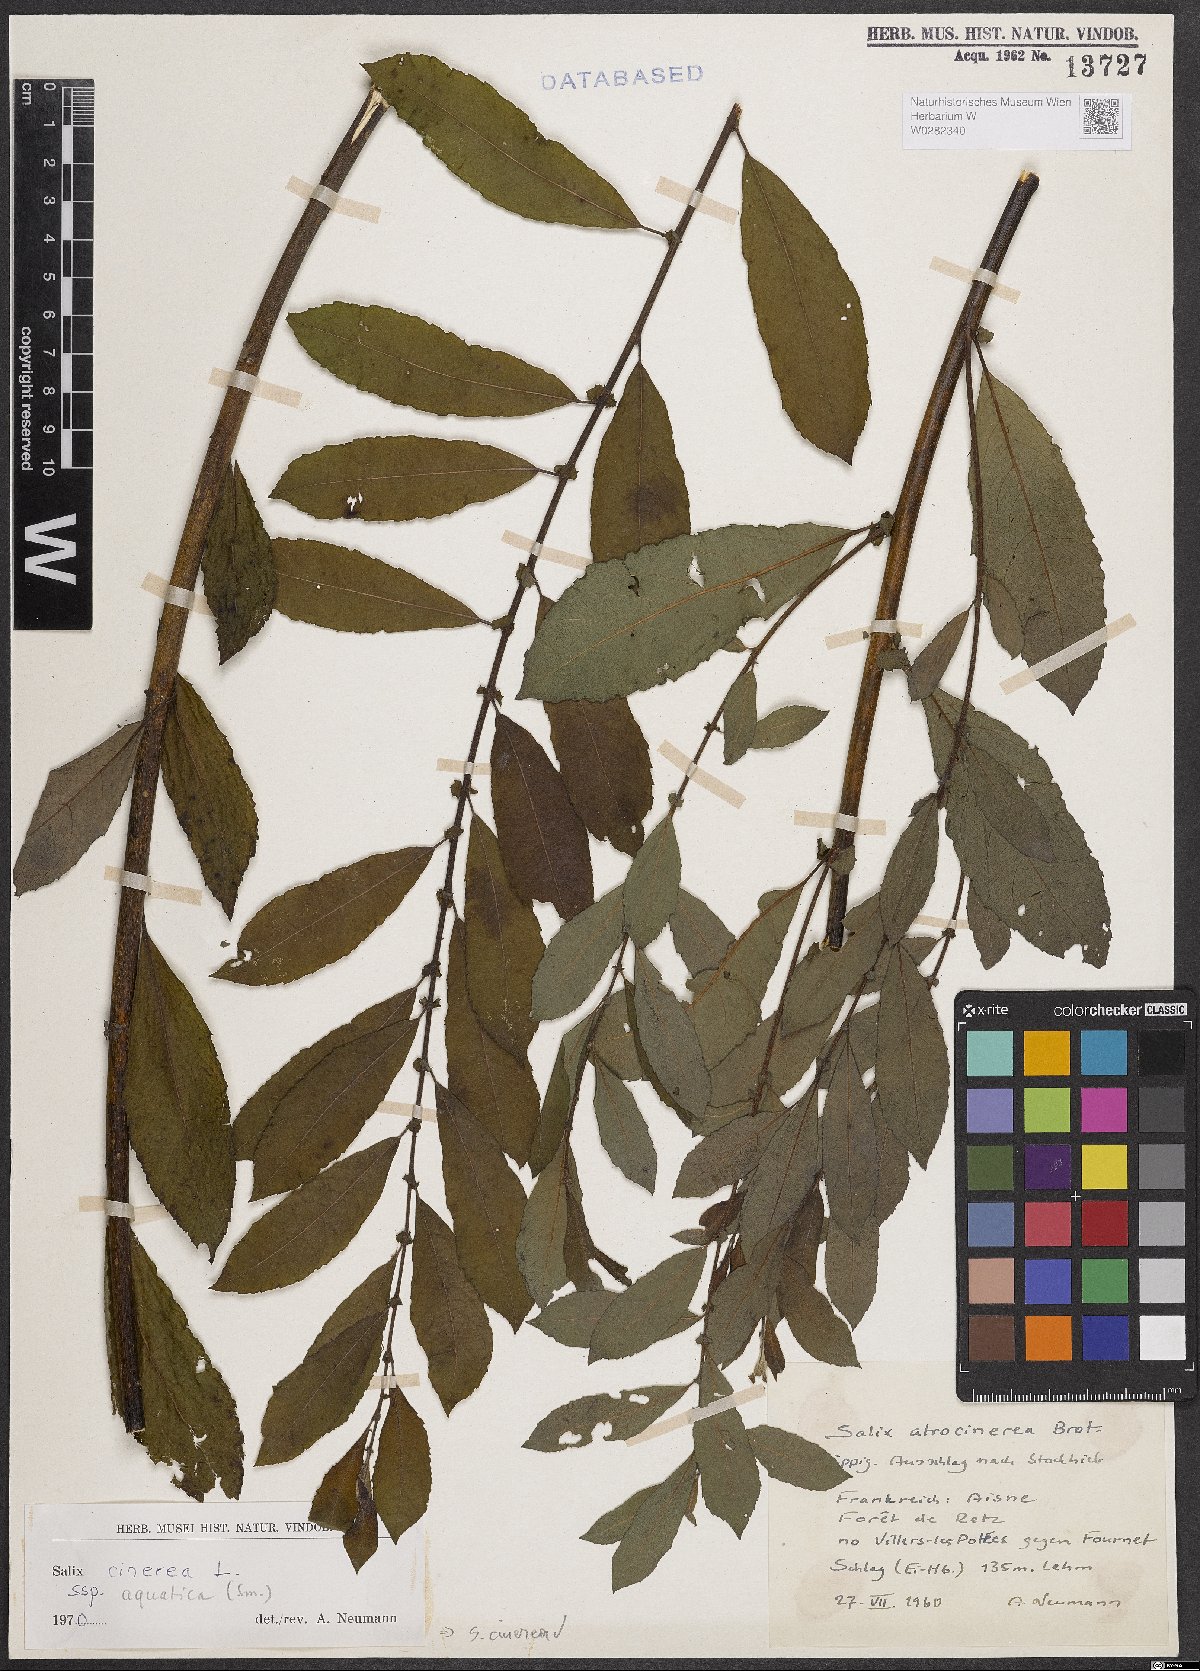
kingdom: Plantae
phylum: Tracheophyta
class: Magnoliopsida
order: Malpighiales
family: Salicaceae
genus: Salix
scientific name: Salix cinerea
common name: Common sallow
